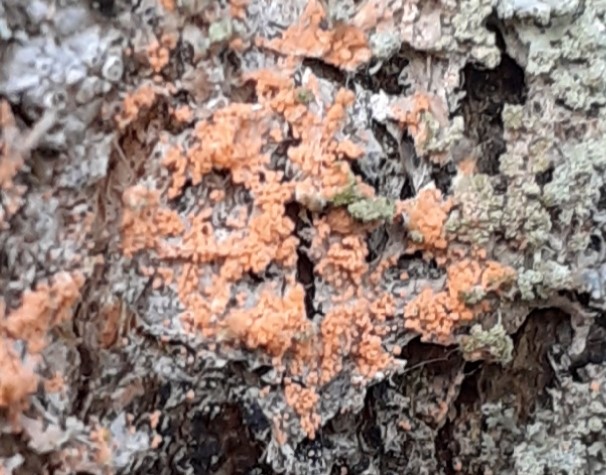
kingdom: Fungi
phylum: Basidiomycota
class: Agaricomycetes
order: Corticiales
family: Corticiaceae
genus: Erythricium
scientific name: Erythricium aurantiacum
